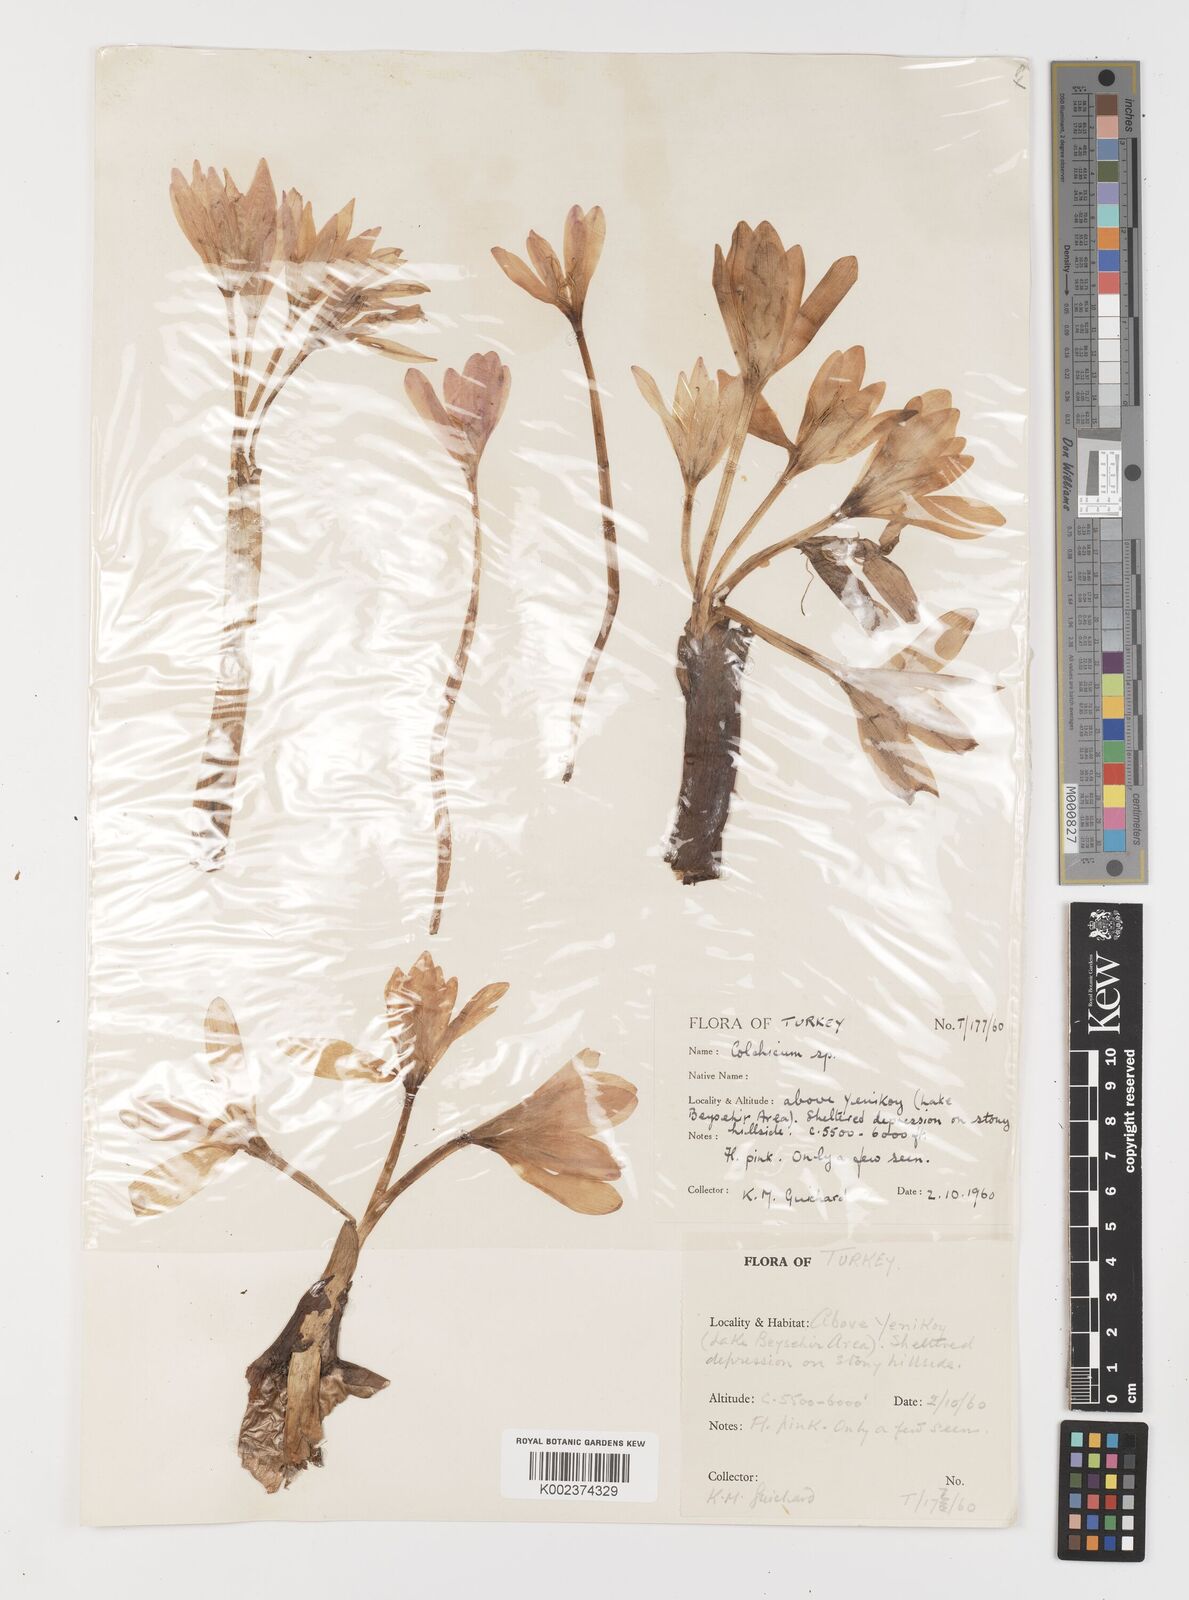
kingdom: Plantae
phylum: Tracheophyta
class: Liliopsida
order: Liliales
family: Colchicaceae
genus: Colchicum
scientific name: Colchicum
